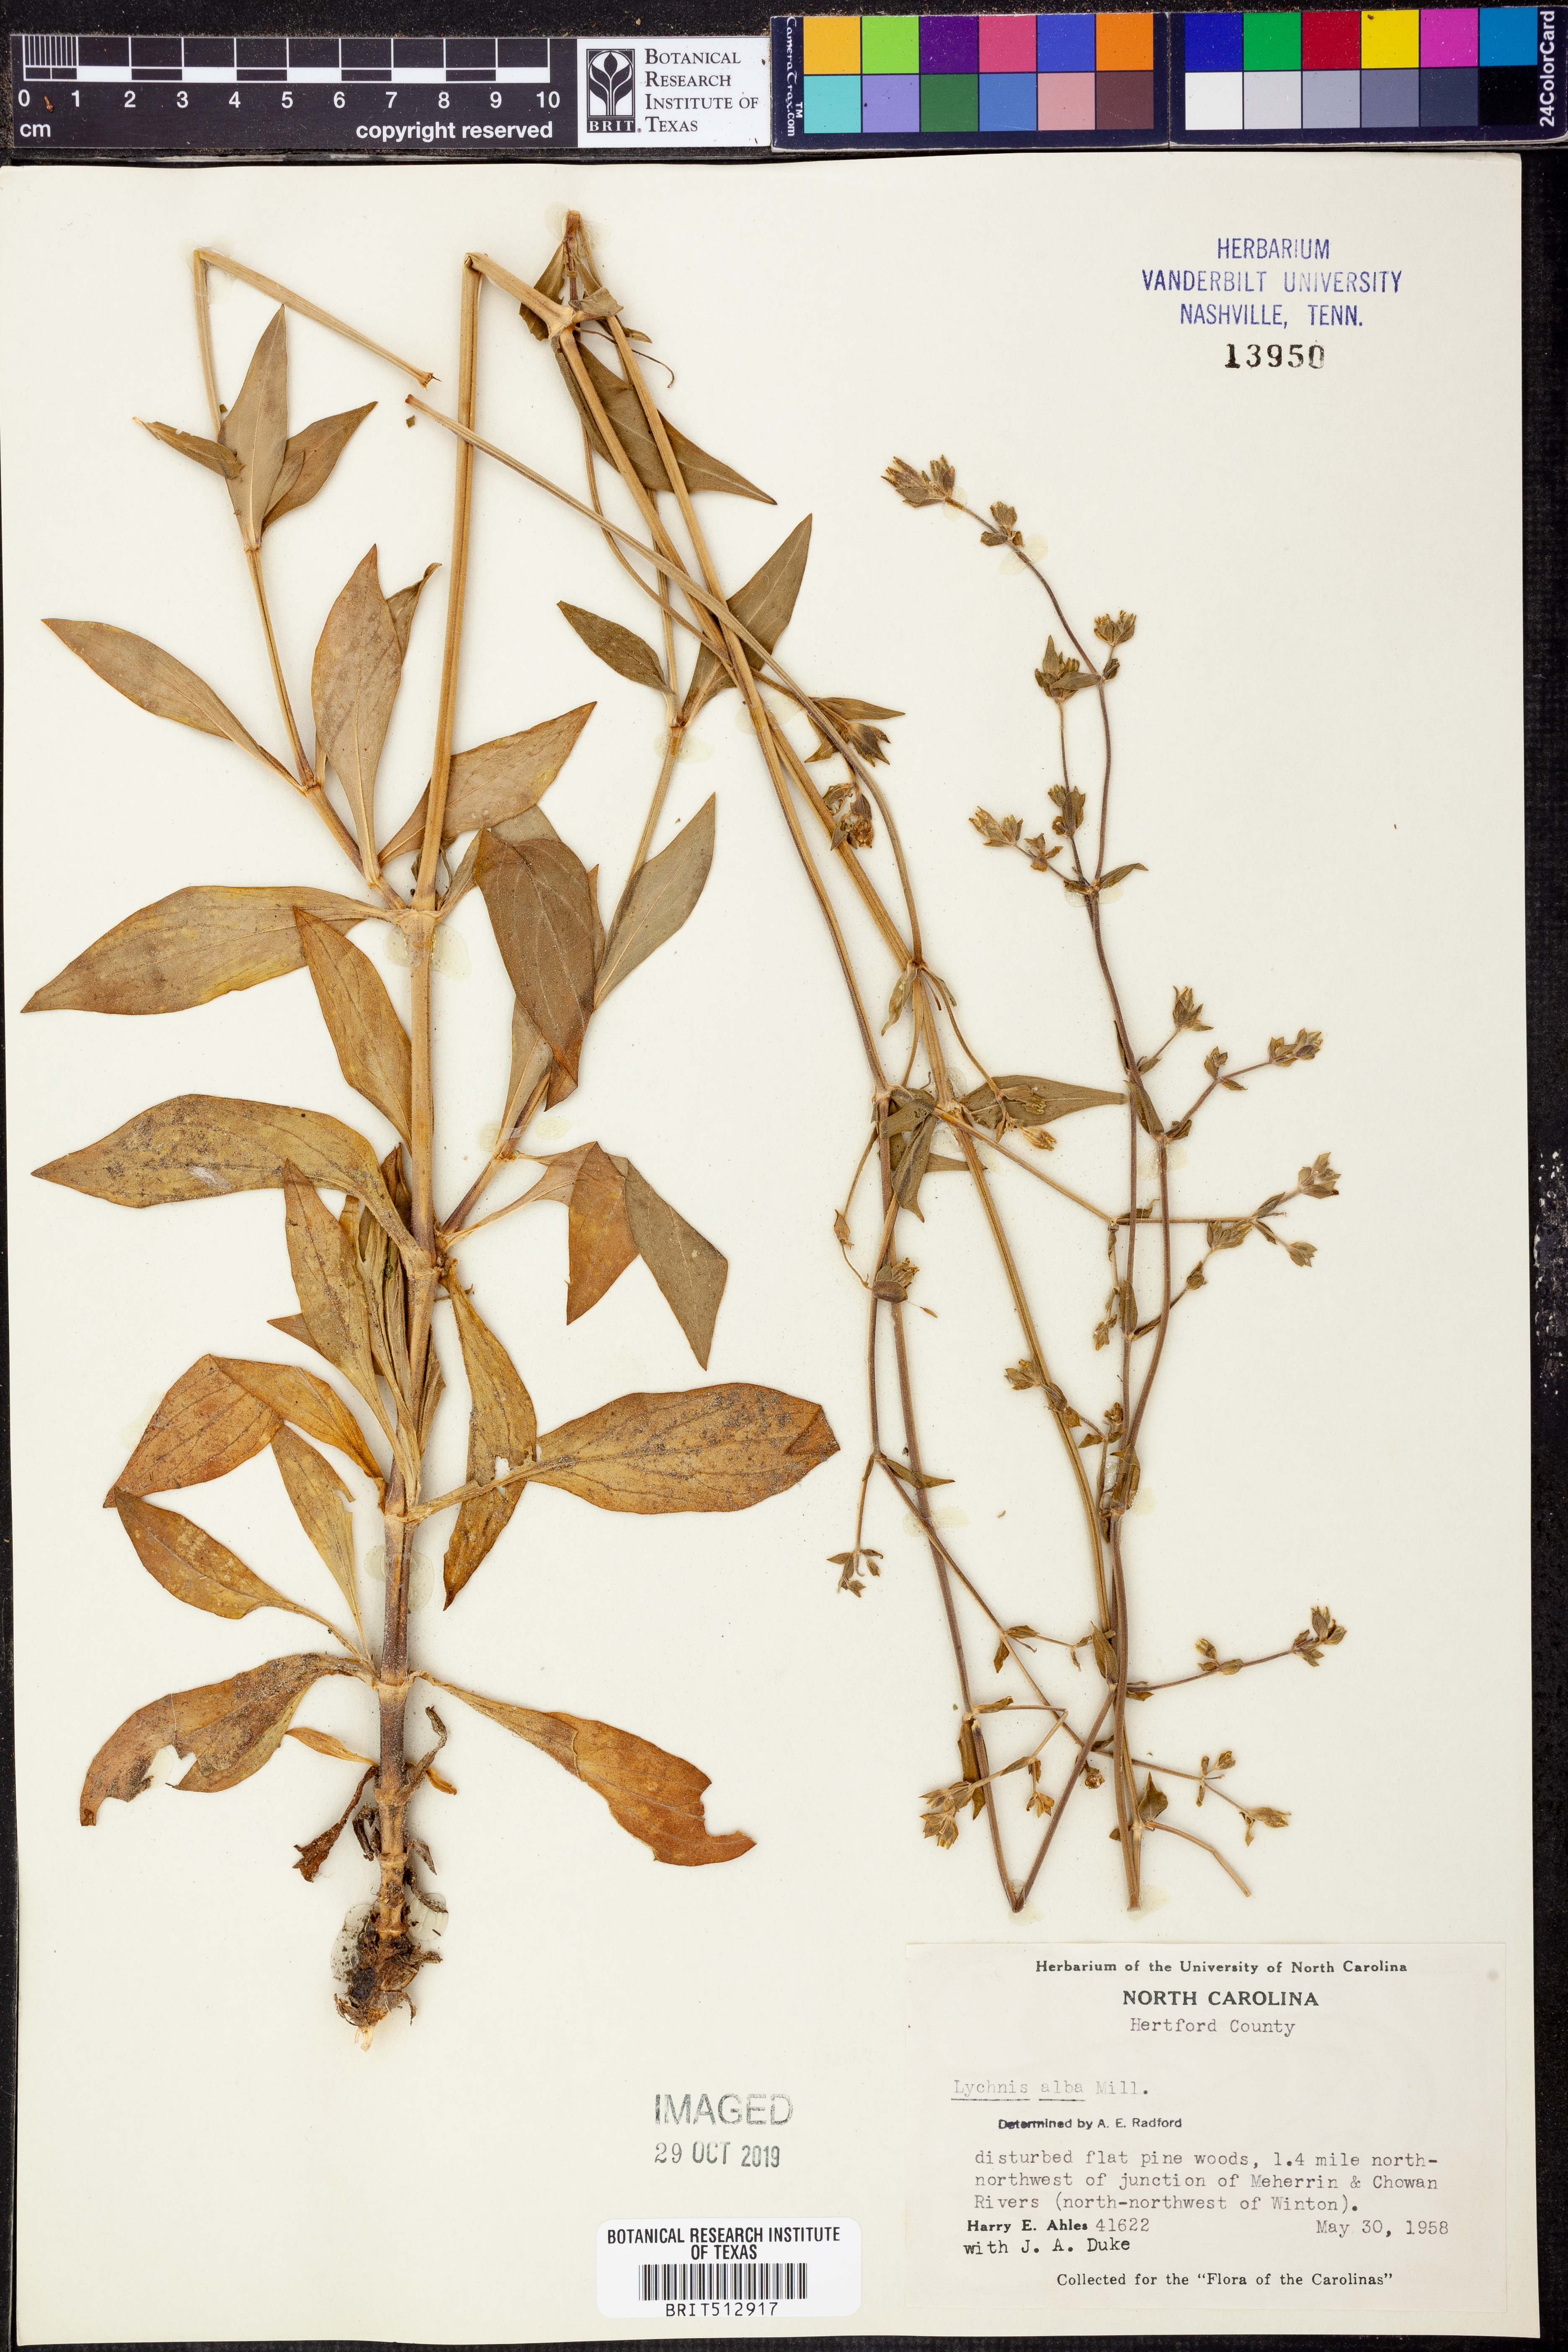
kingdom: Plantae
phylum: Tracheophyta
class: Magnoliopsida
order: Caryophyllales
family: Caryophyllaceae
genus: Silene
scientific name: Silene latifolia
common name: White campion
